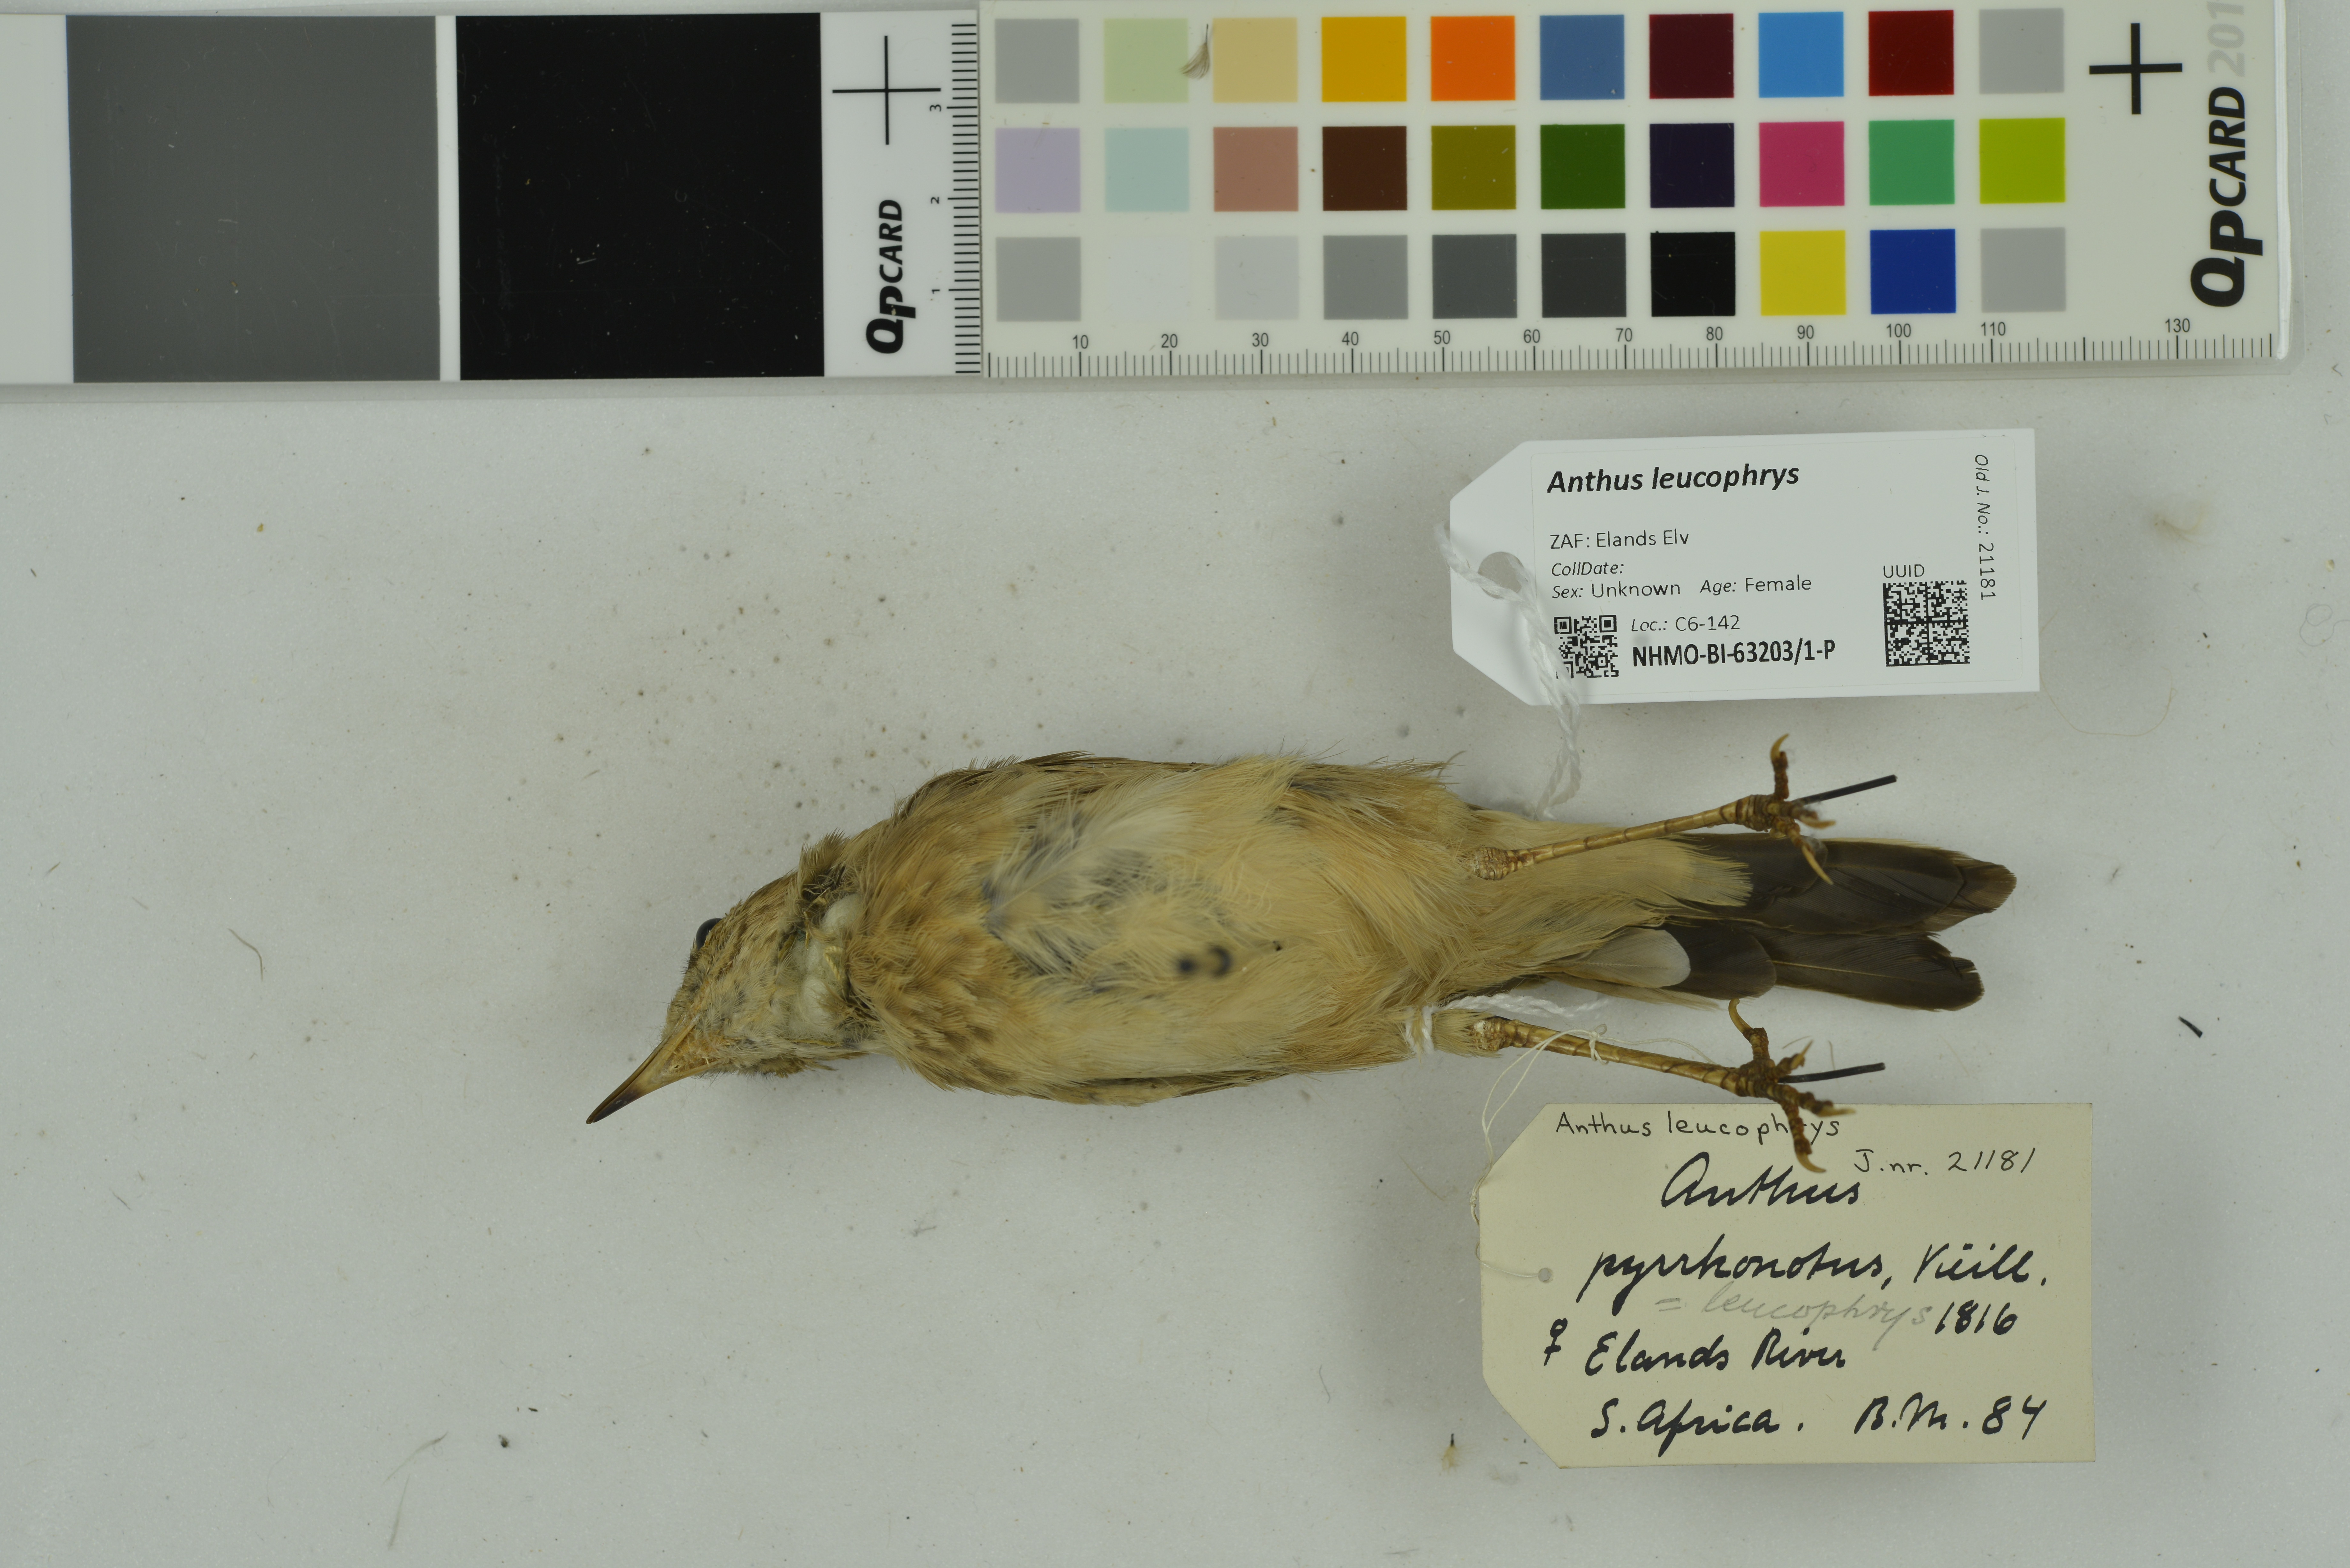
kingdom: Animalia
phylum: Chordata
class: Aves
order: Passeriformes
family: Motacillidae
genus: Anthus
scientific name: Anthus leucophrys
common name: Plain-backed pipit
